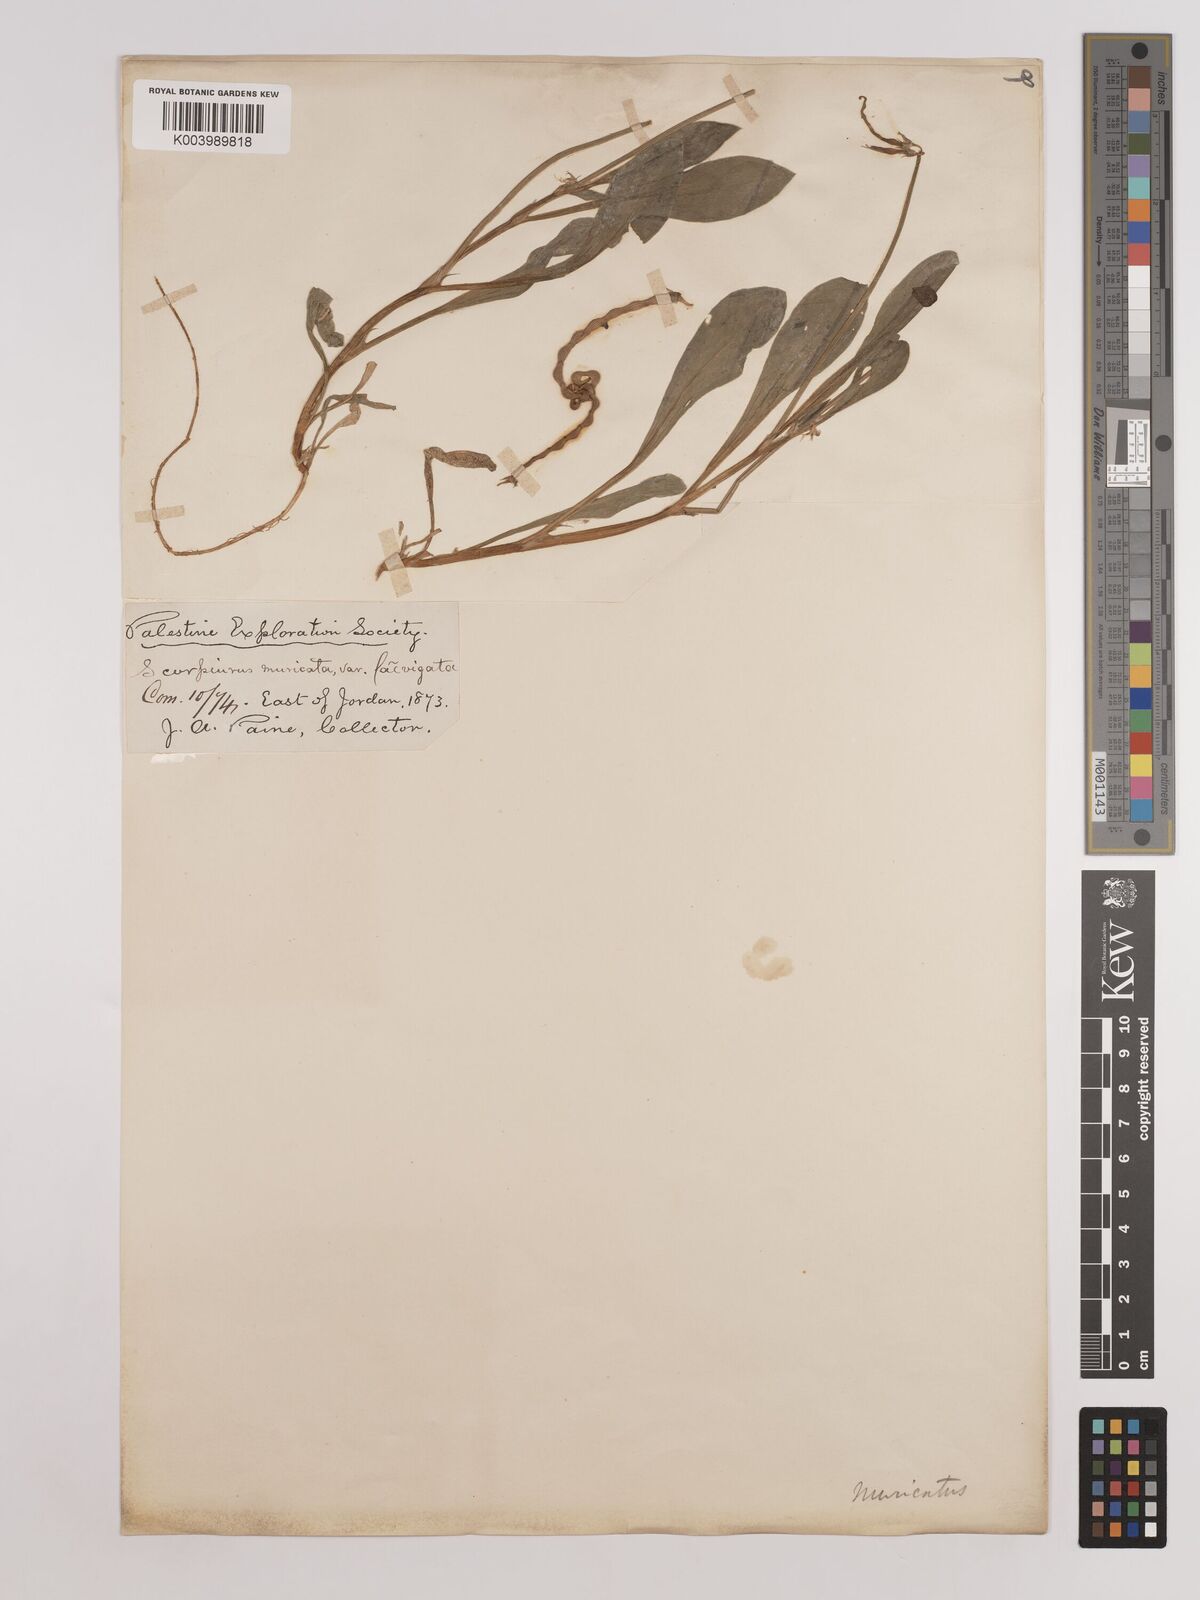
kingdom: Plantae
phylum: Tracheophyta
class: Magnoliopsida
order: Fabales
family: Fabaceae
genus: Scorpiurus
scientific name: Scorpiurus muricatus
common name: Caterpillar-plant
